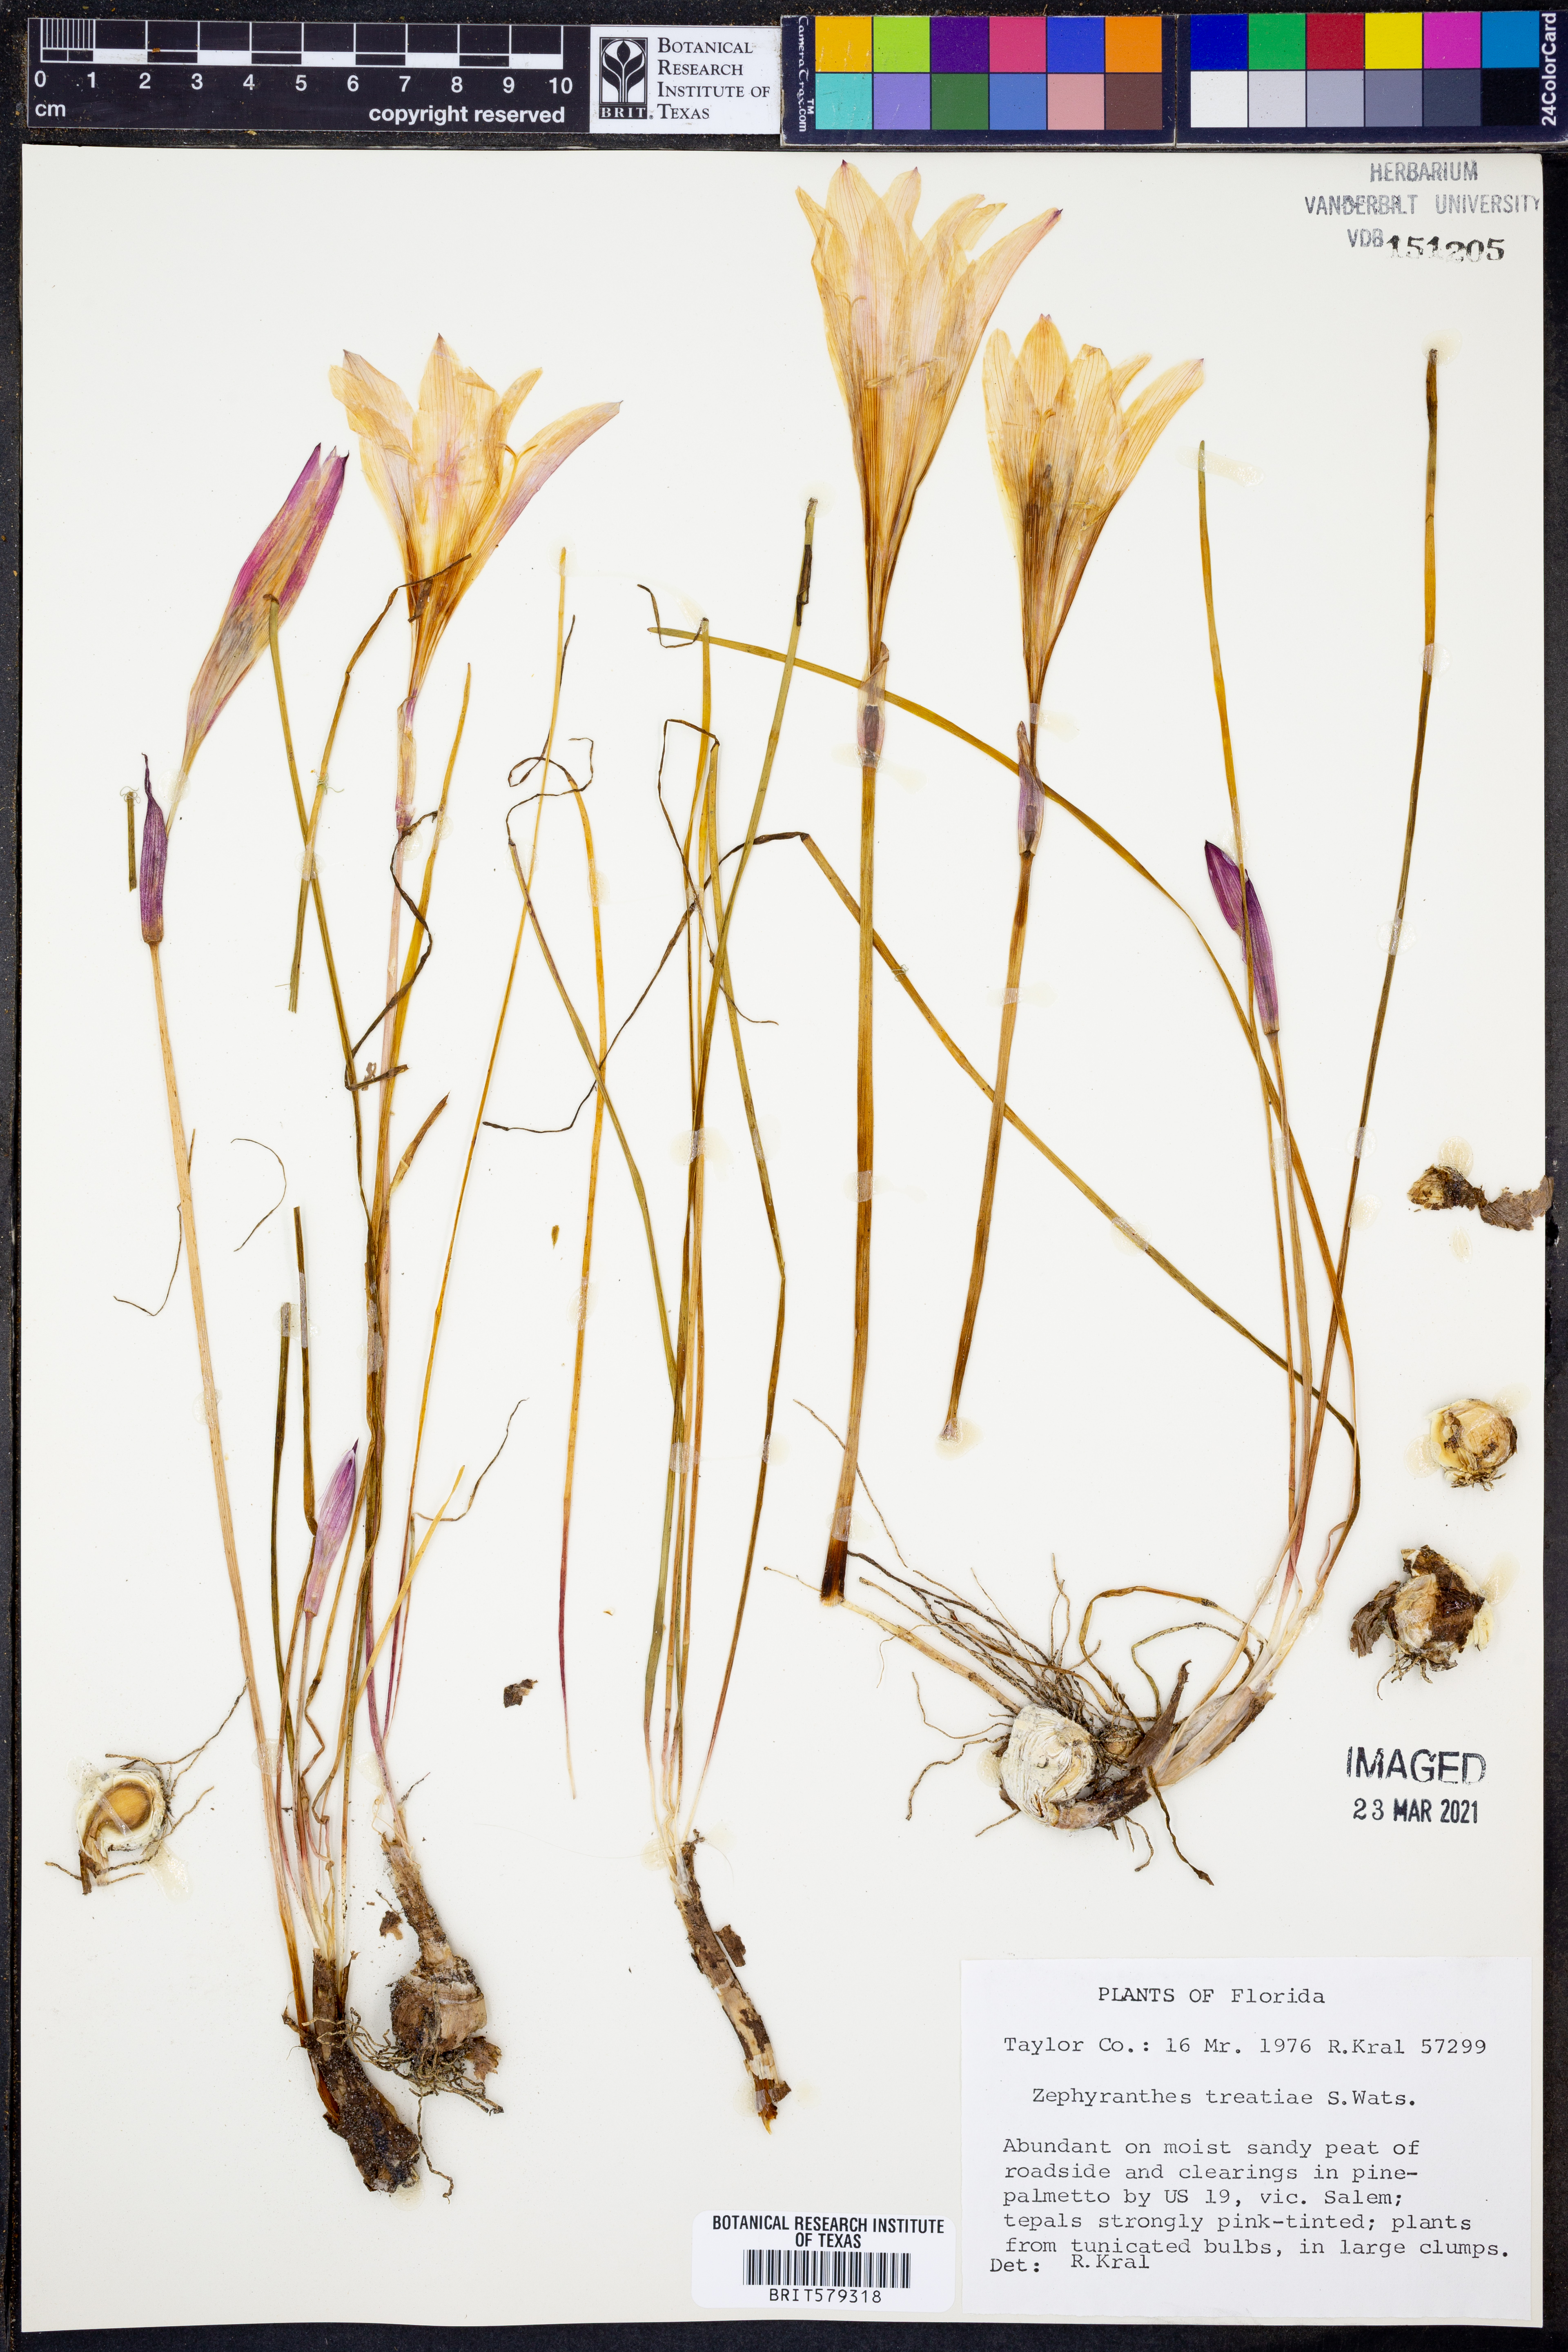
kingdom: Plantae
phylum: Tracheophyta
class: Liliopsida
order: Asparagales
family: Amaryllidaceae
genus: Zephyranthes
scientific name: Zephyranthes treatiae
